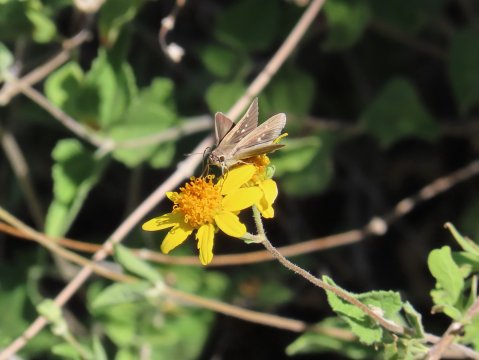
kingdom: Animalia
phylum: Arthropoda
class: Insecta
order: Lepidoptera
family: Hesperiidae
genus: Lerodea
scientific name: Lerodea eufala
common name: Eufala Skipper
